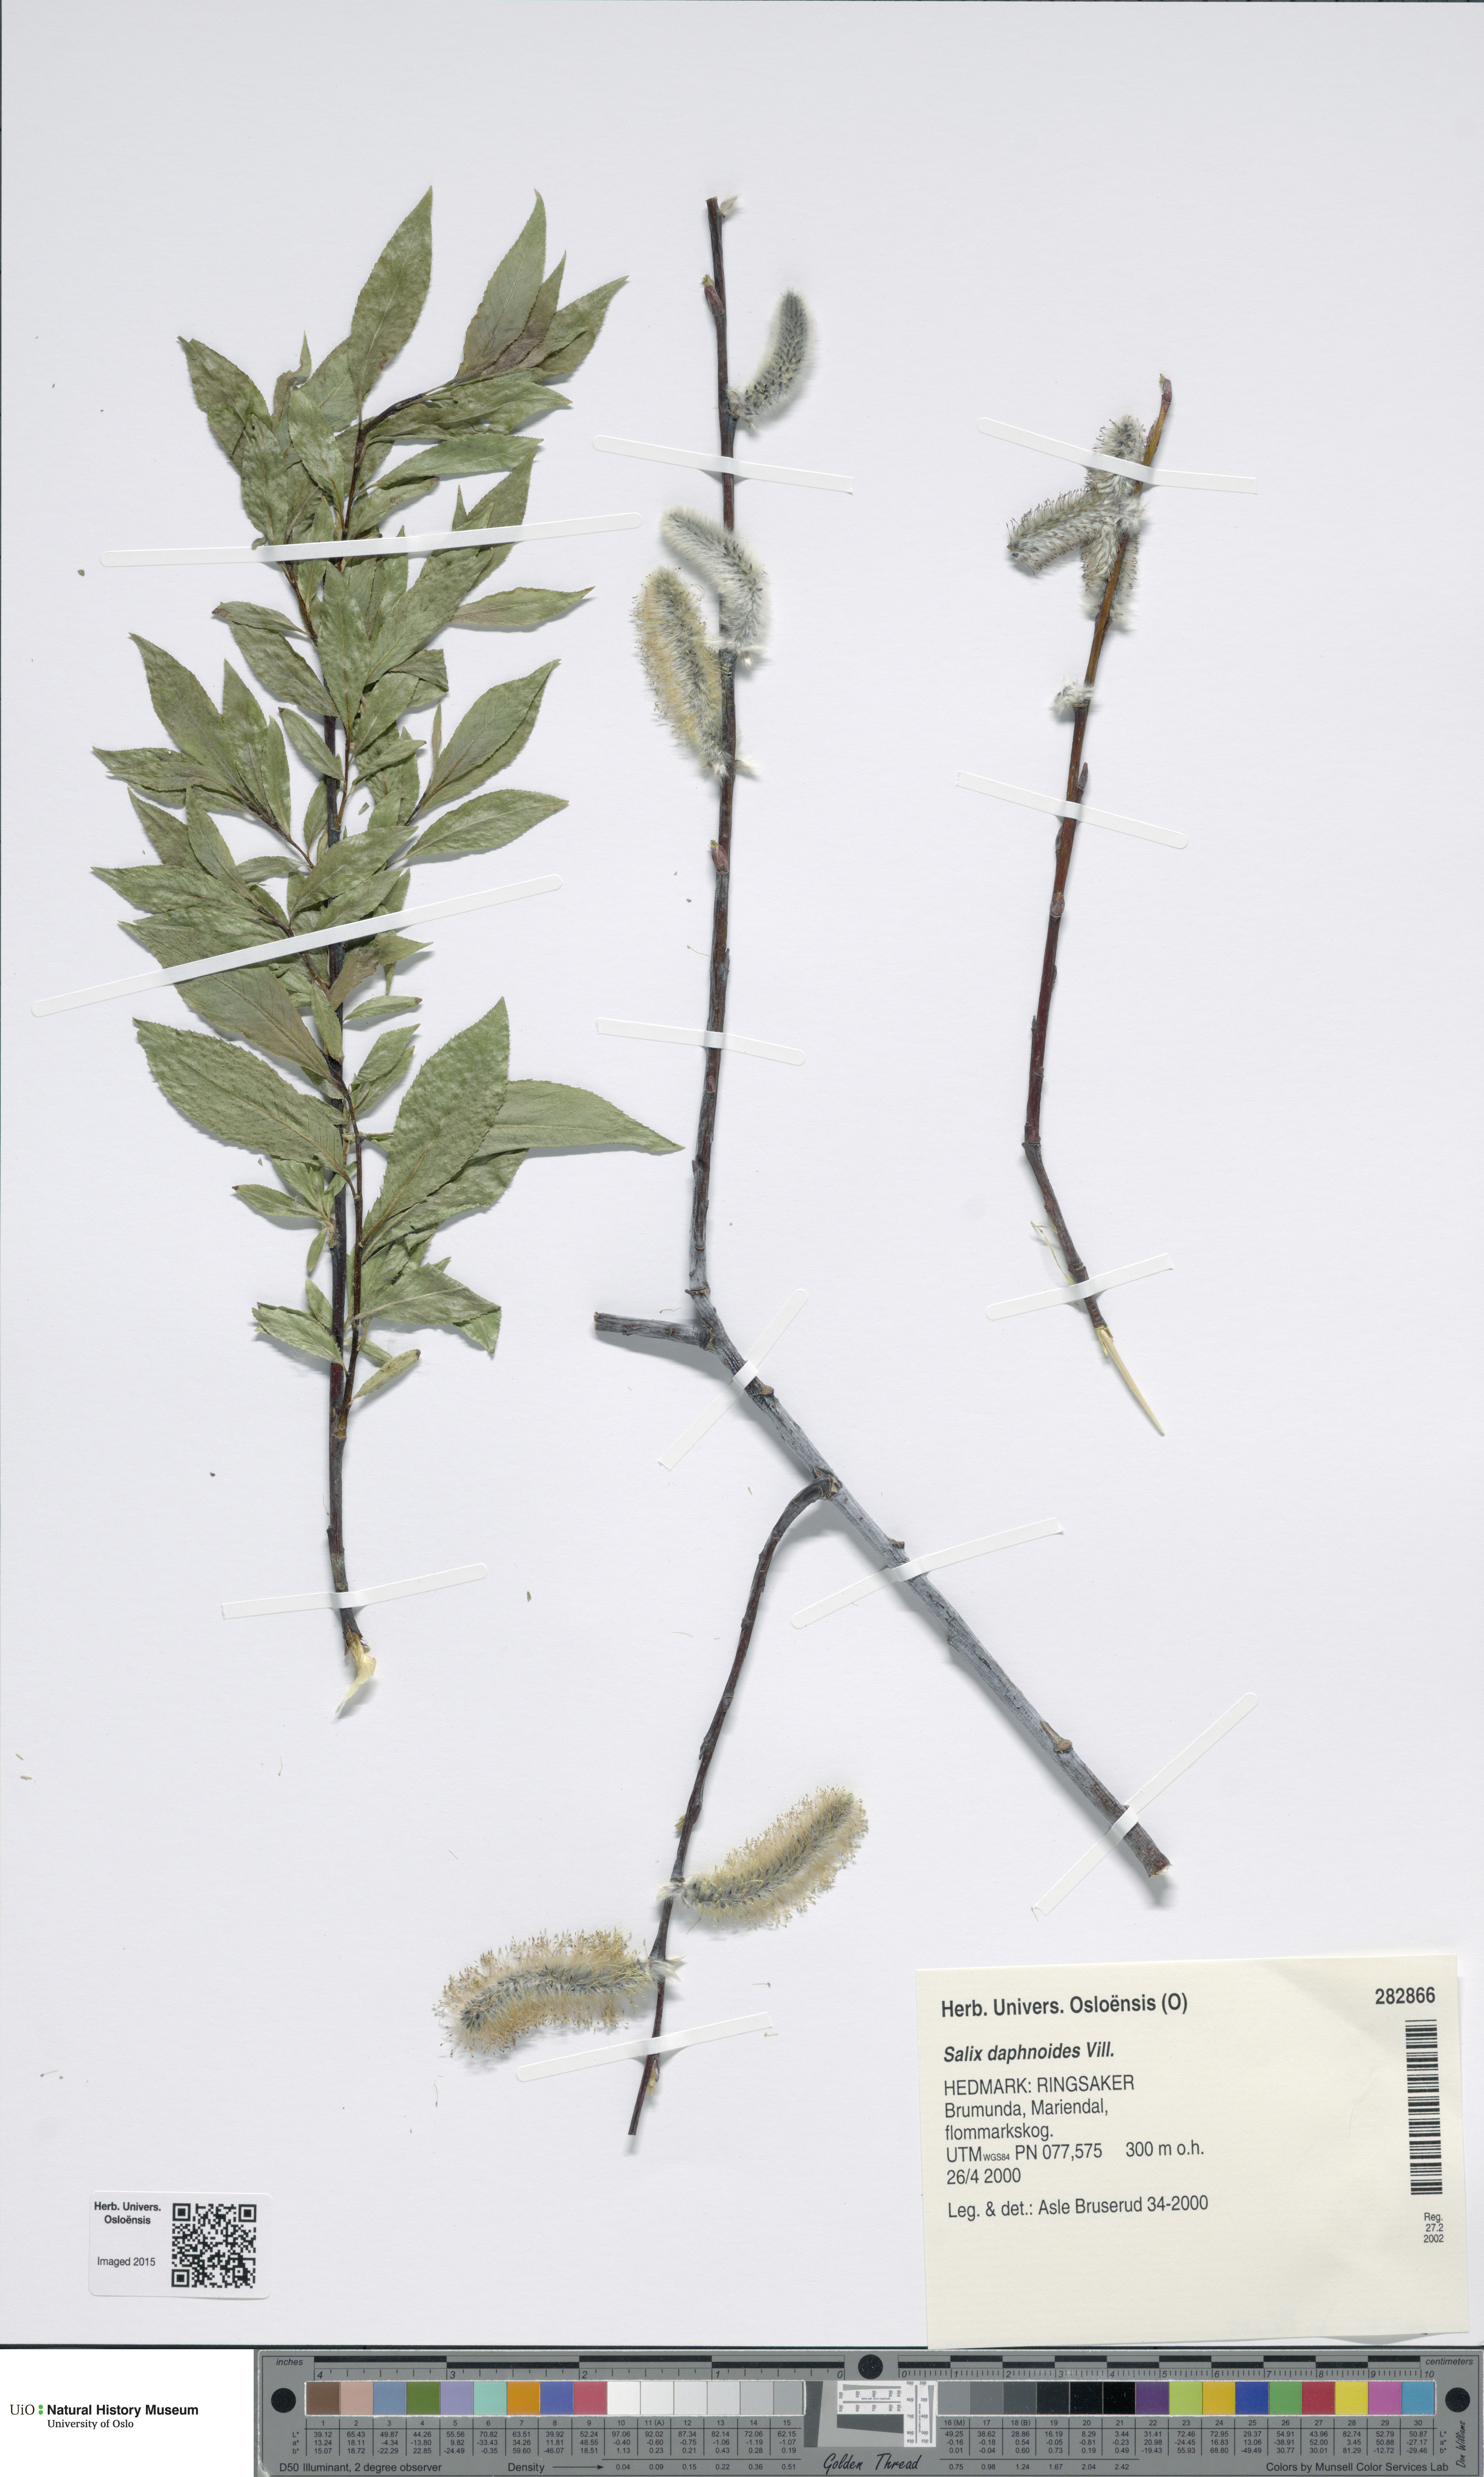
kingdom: Plantae
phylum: Tracheophyta
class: Magnoliopsida
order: Malpighiales
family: Salicaceae
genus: Salix
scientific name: Salix daphnoides
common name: European violet-willow
